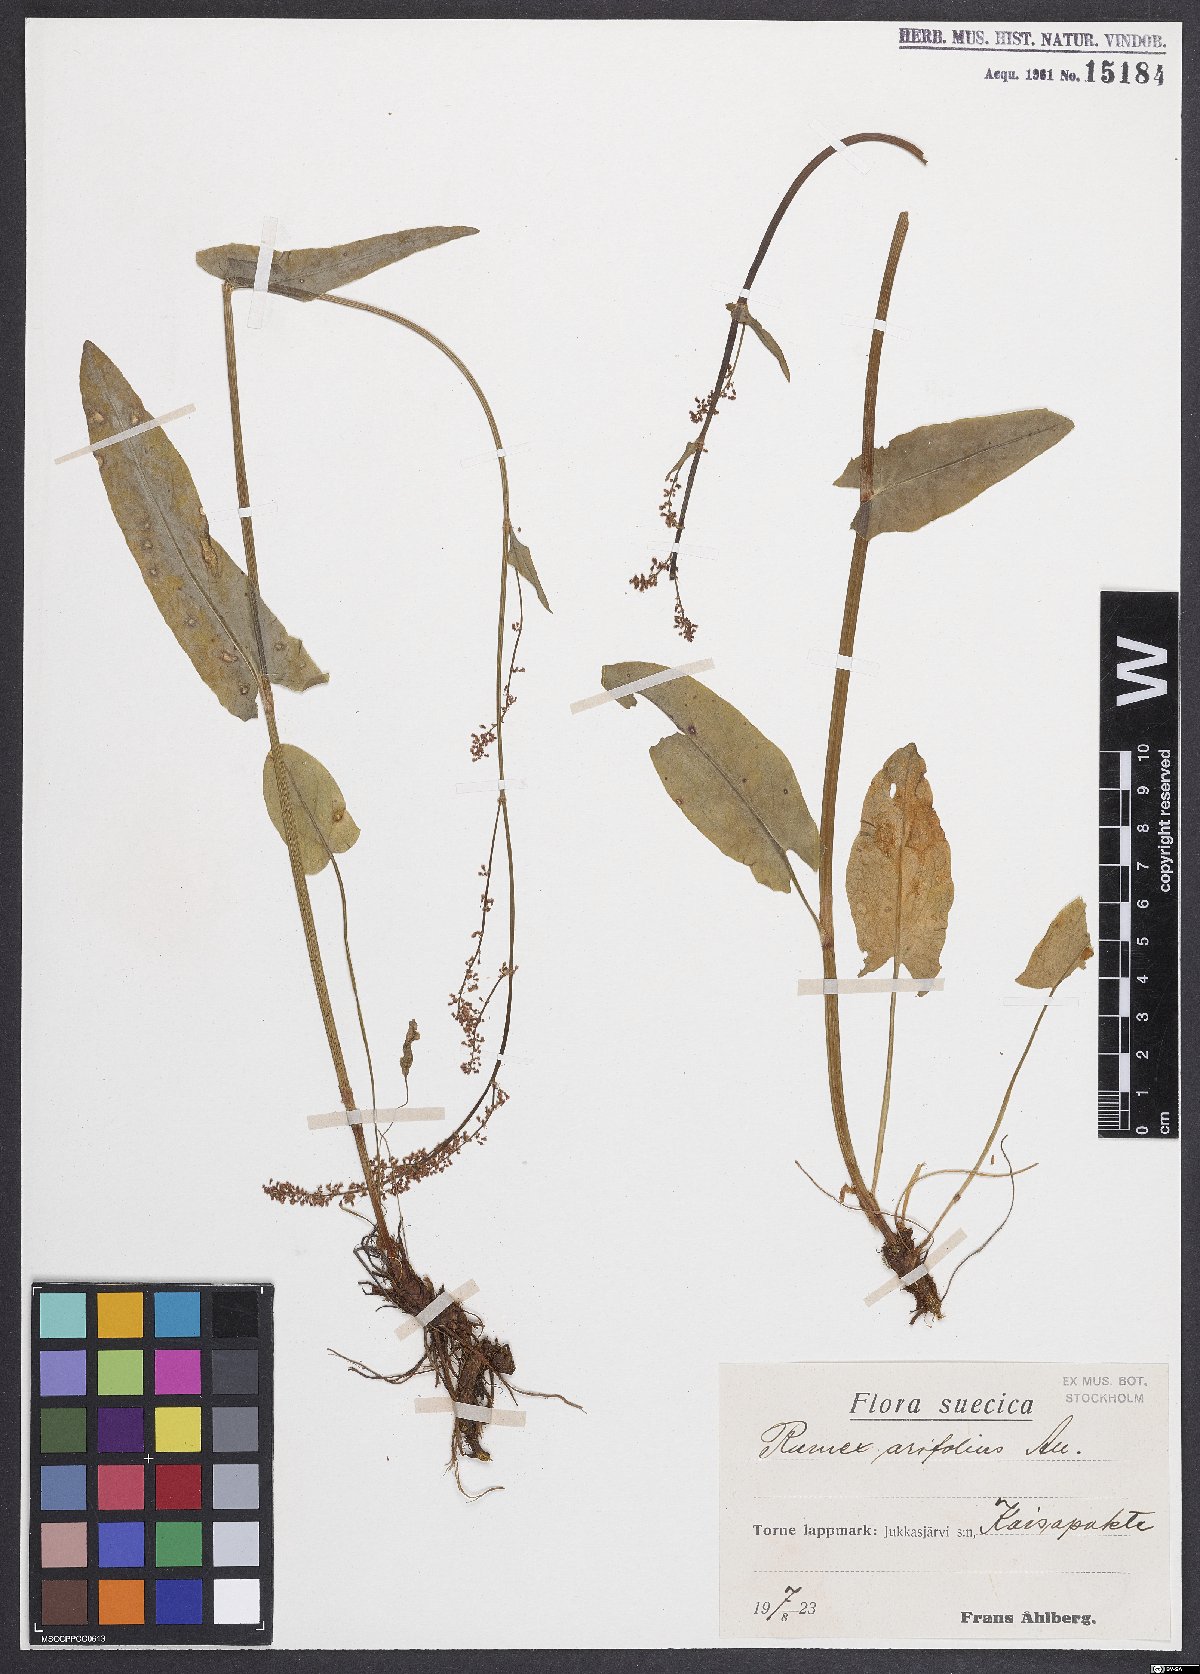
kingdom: Plantae
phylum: Tracheophyta
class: Magnoliopsida
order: Caryophyllales
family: Polygonaceae
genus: Rumex
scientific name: Rumex arifolius
